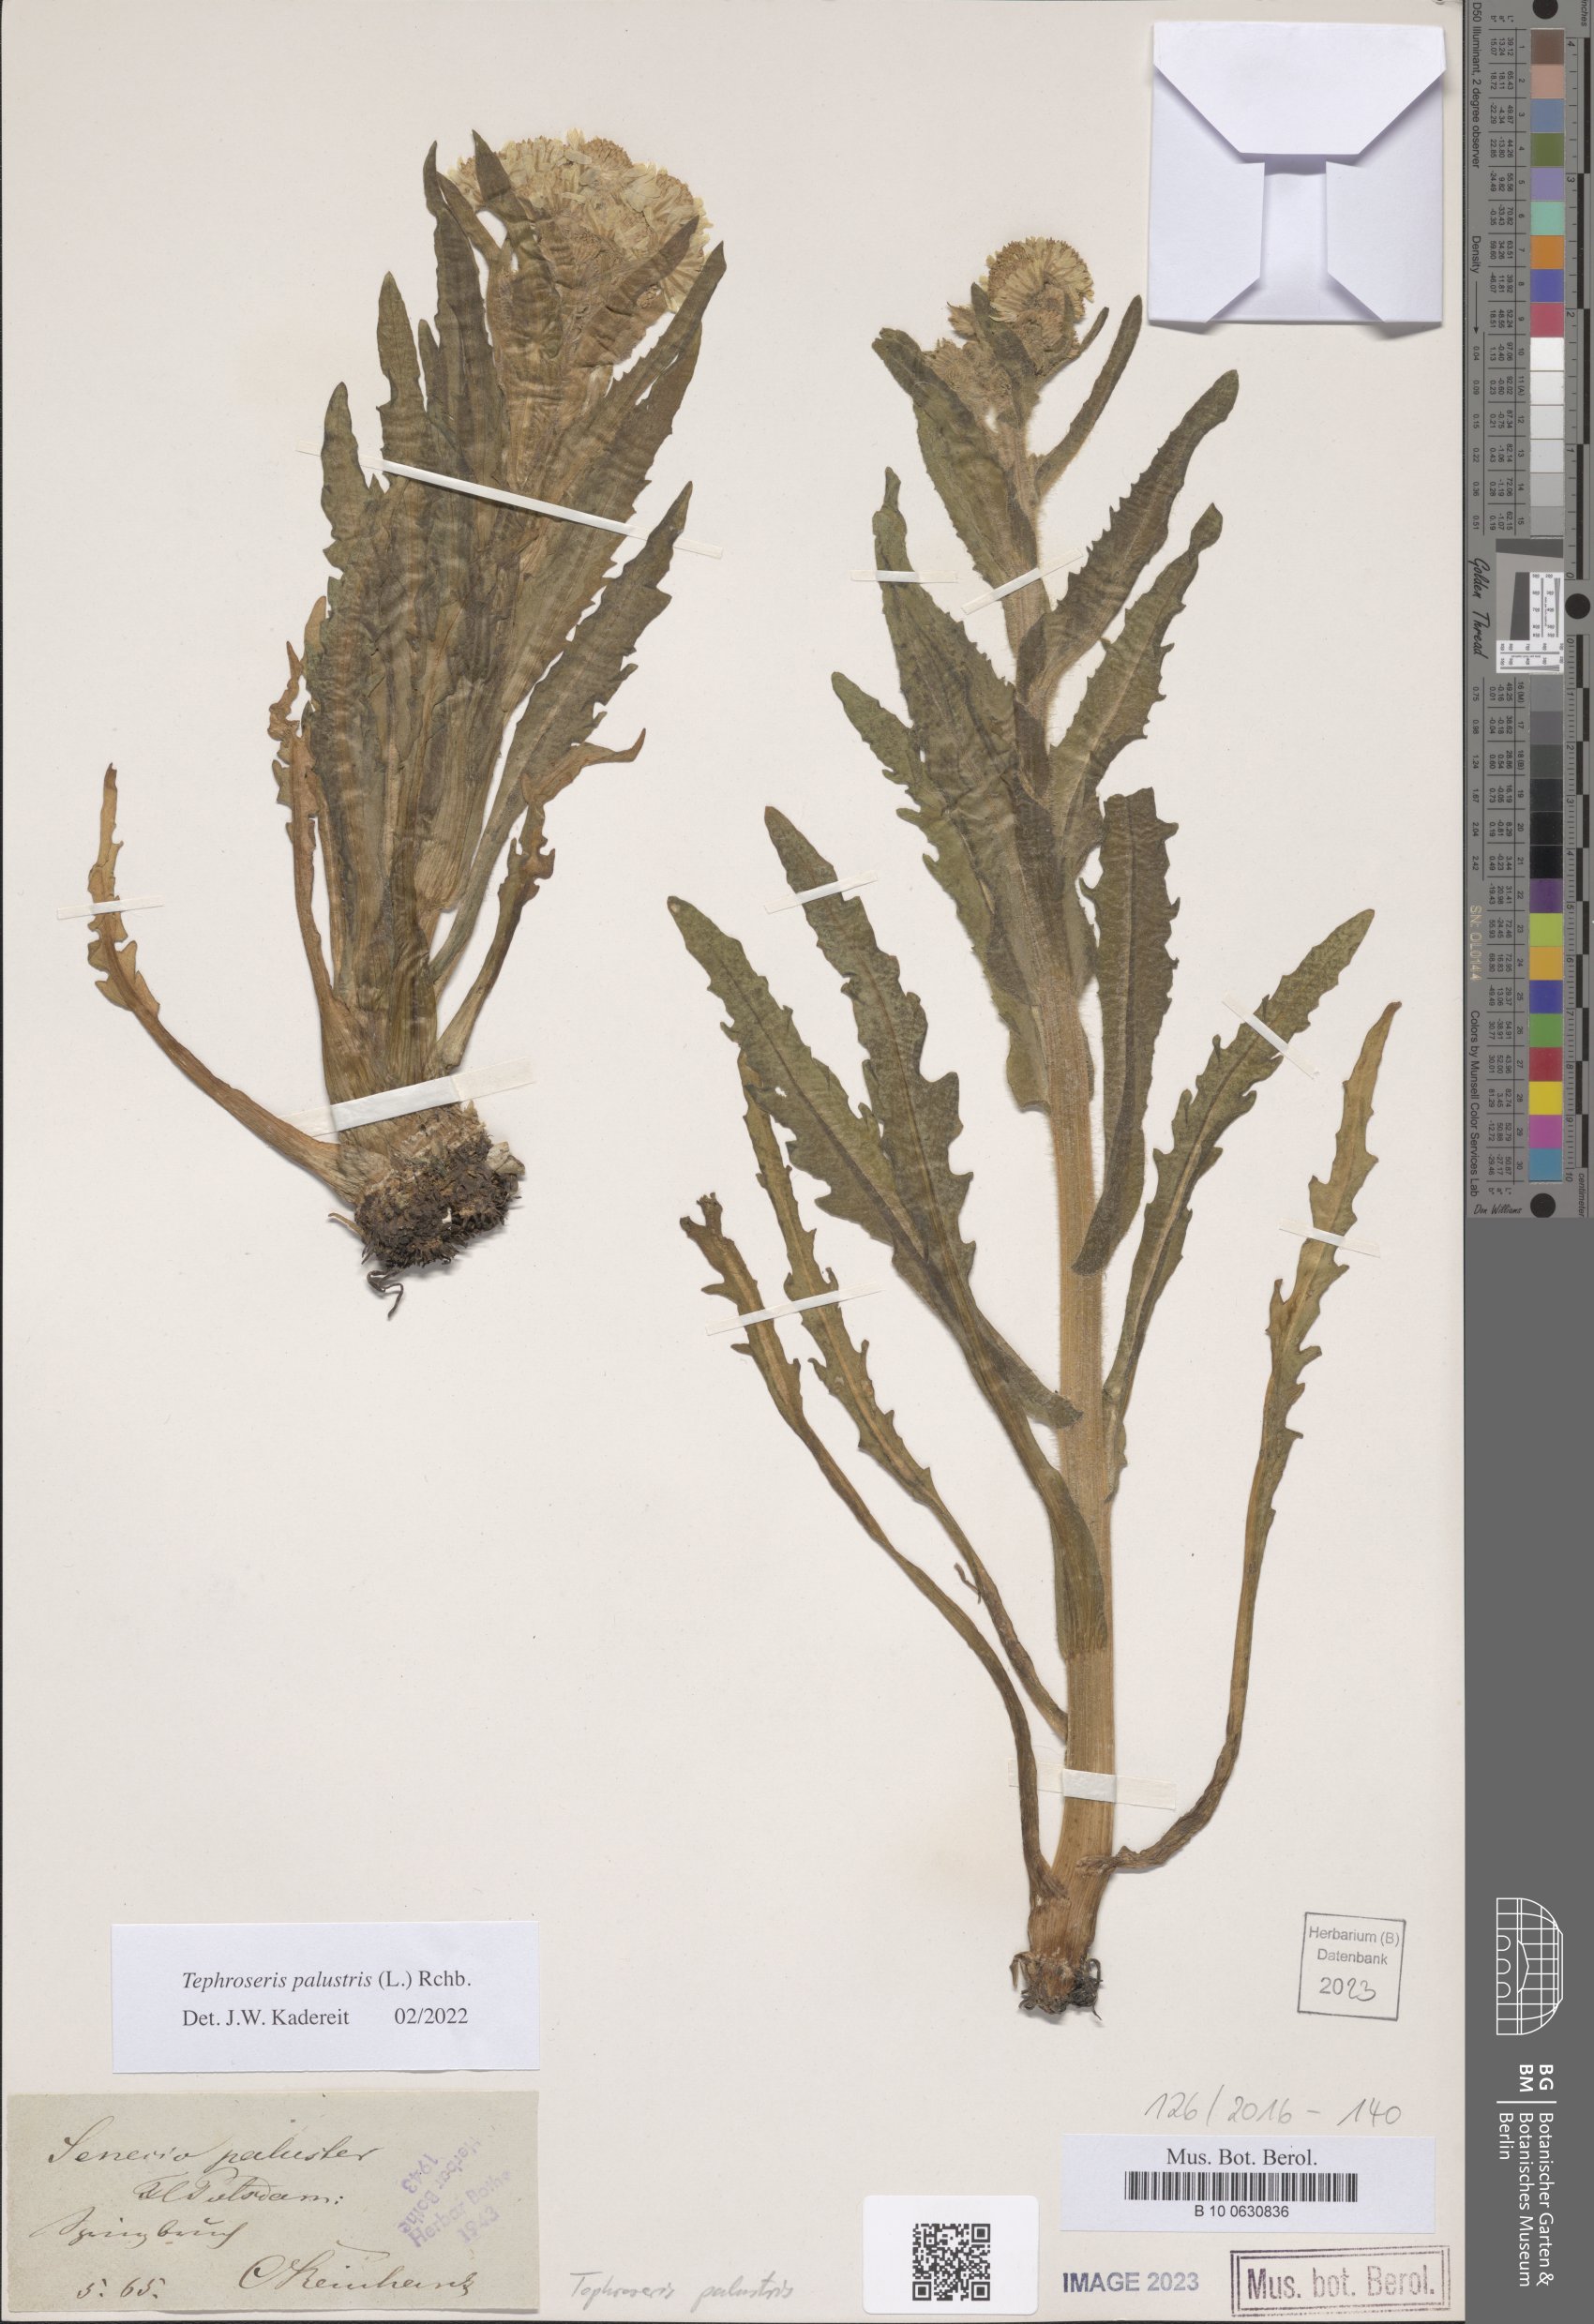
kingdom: Plantae
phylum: Tracheophyta
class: Magnoliopsida
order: Asterales
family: Asteraceae
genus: Tephroseris
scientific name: Tephroseris palustris
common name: Marsh fleawort
